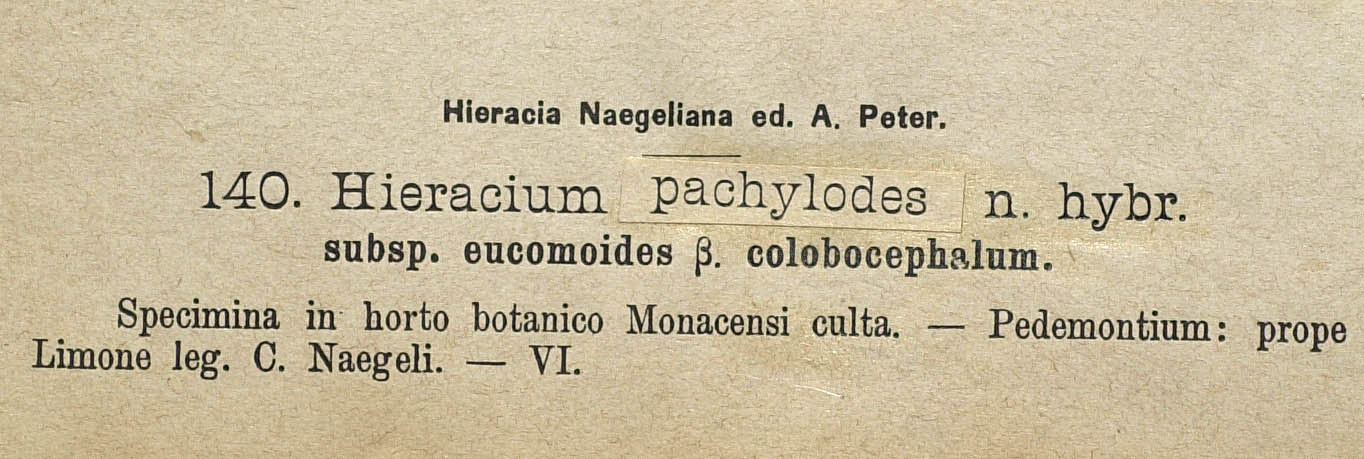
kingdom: Plantae
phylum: Tracheophyta
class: Magnoliopsida
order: Asterales
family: Asteraceae
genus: Pilosella
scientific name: Pilosella longisquama
